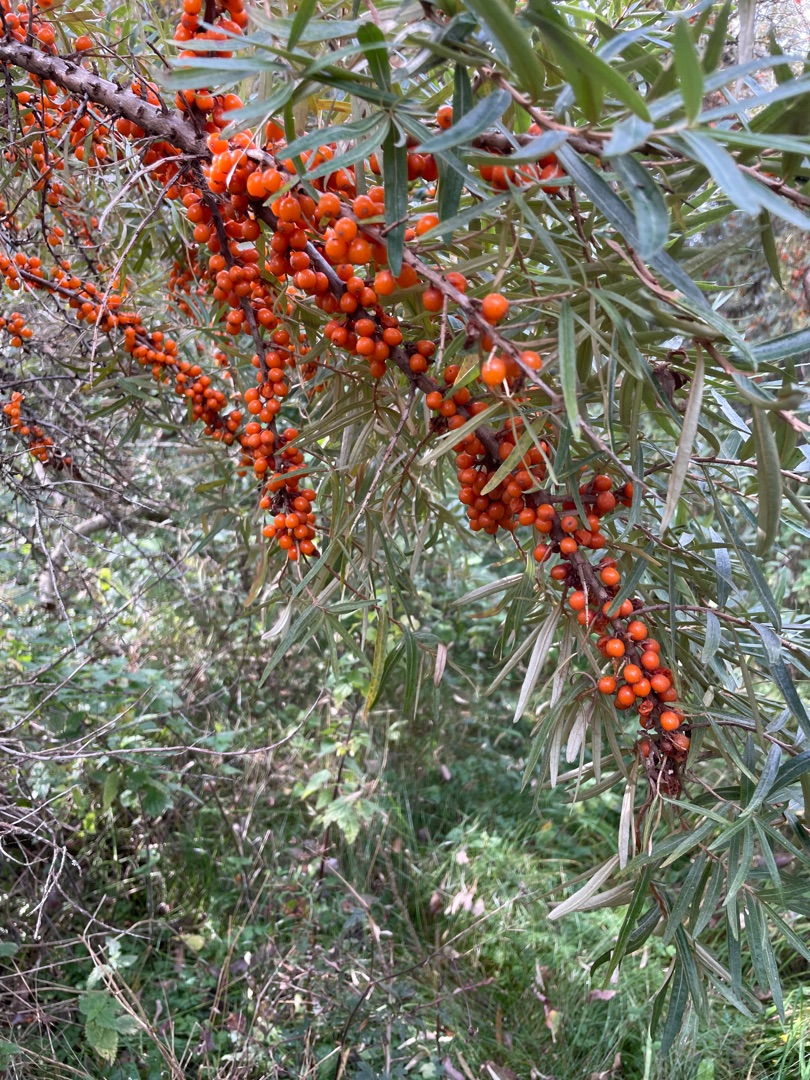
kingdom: Plantae
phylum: Tracheophyta
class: Magnoliopsida
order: Rosales
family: Elaeagnaceae
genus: Hippophae
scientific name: Hippophae rhamnoides
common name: Havtorn
